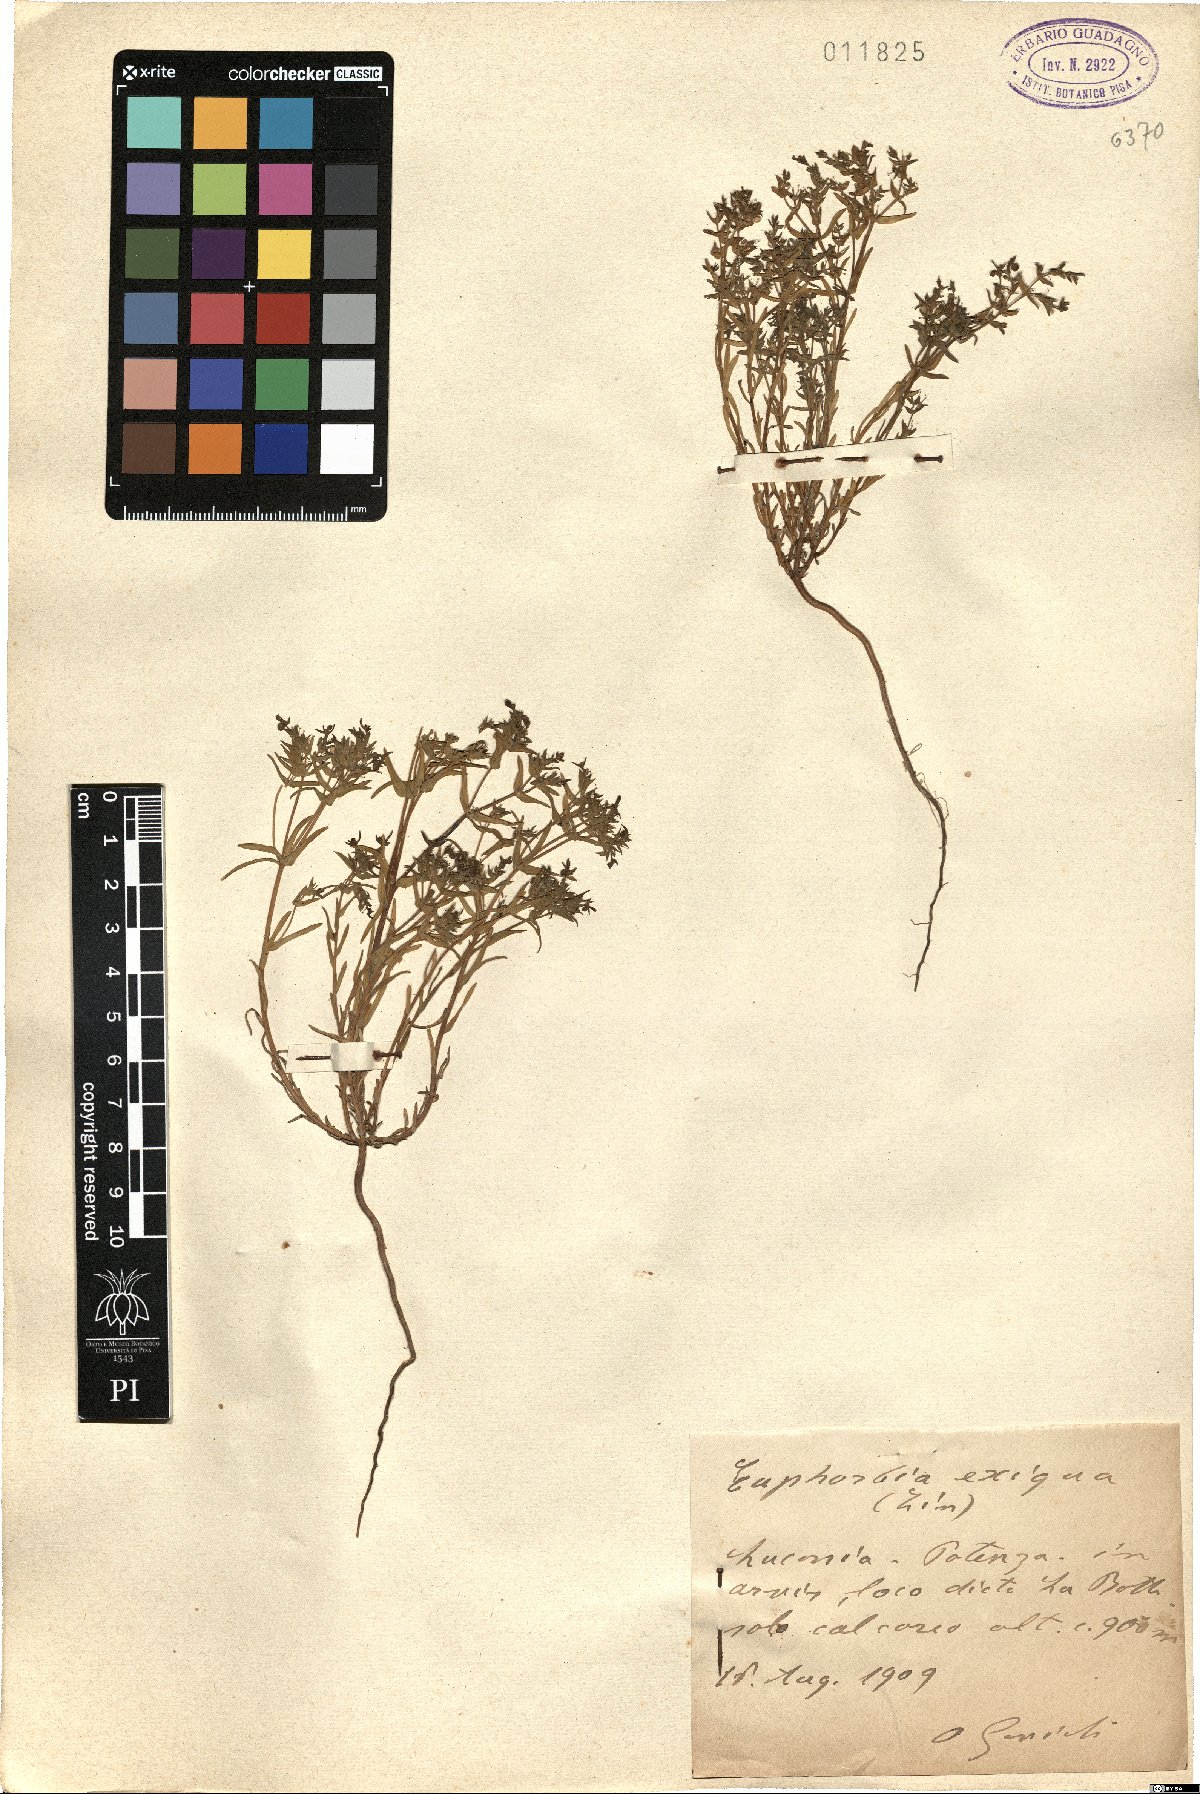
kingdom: Plantae
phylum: Tracheophyta
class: Magnoliopsida
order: Malpighiales
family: Euphorbiaceae
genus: Euphorbia
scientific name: Euphorbia exigua
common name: Dwarf spurge
